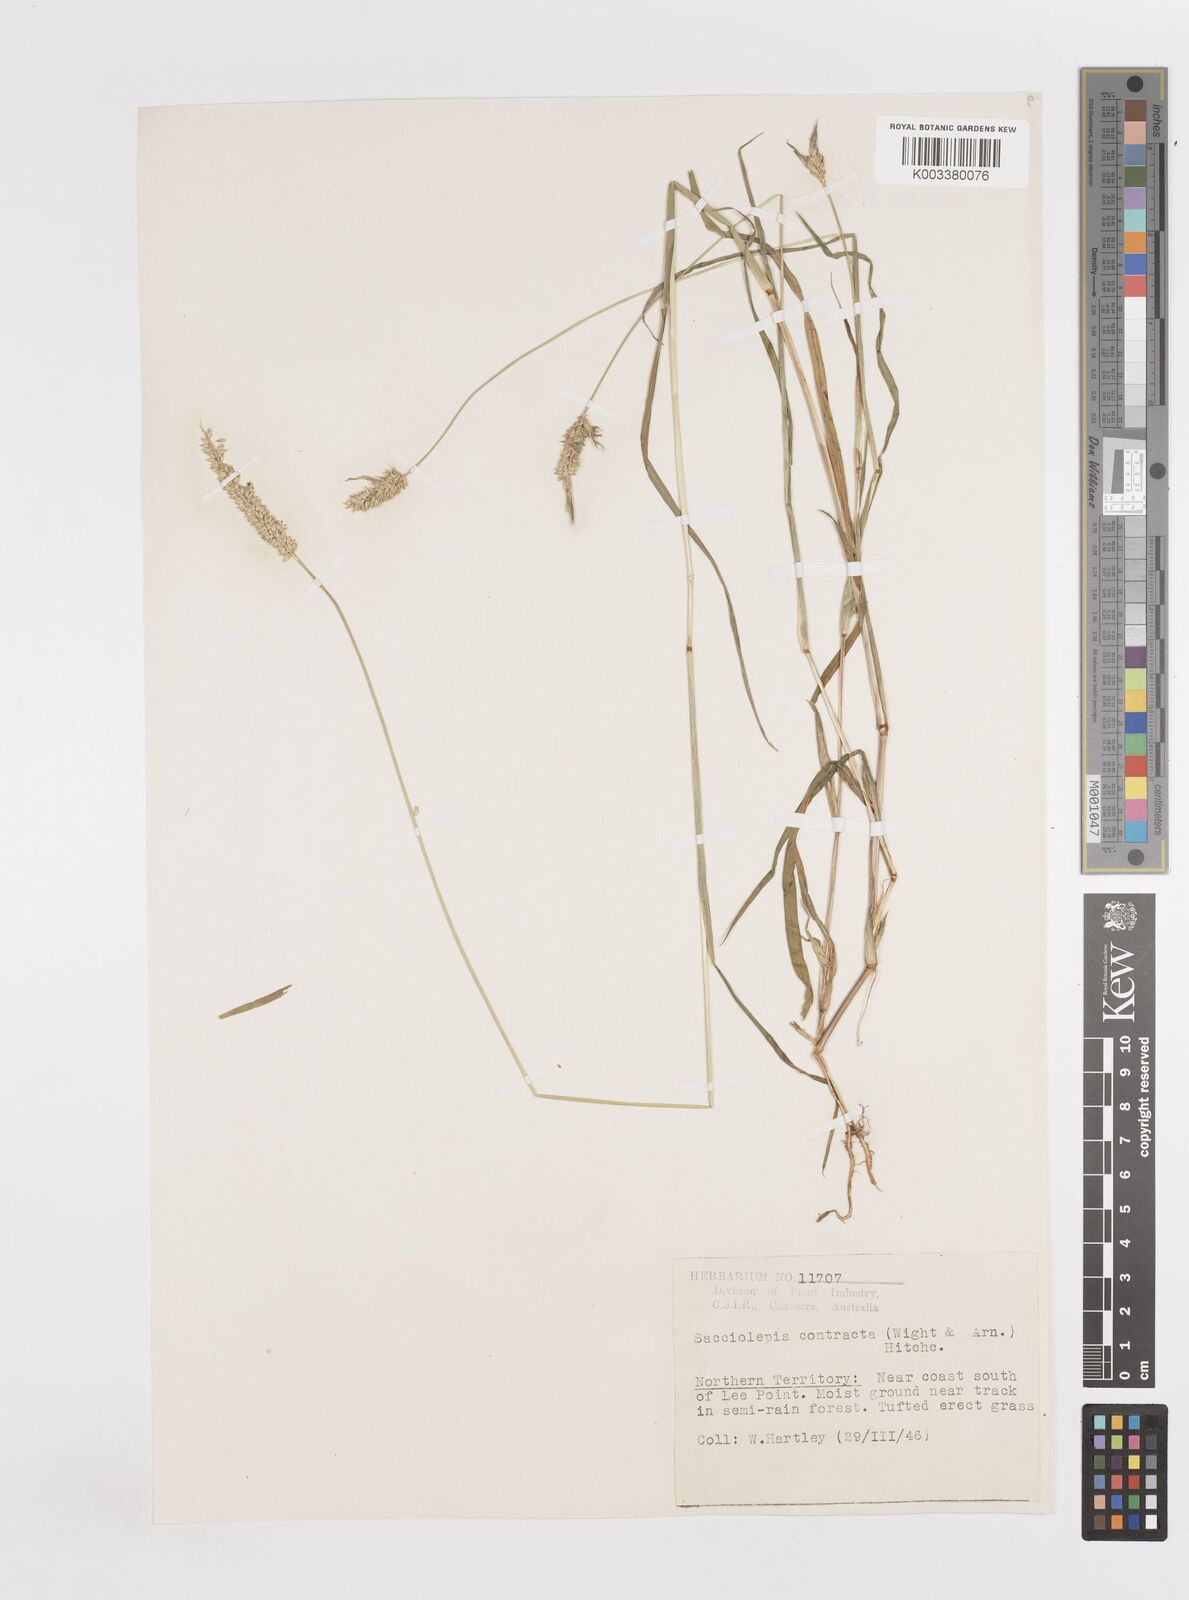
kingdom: Plantae
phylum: Tracheophyta
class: Liliopsida
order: Poales
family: Poaceae
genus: Sacciolepis
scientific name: Sacciolepis indica
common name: Glenwoodgrass
